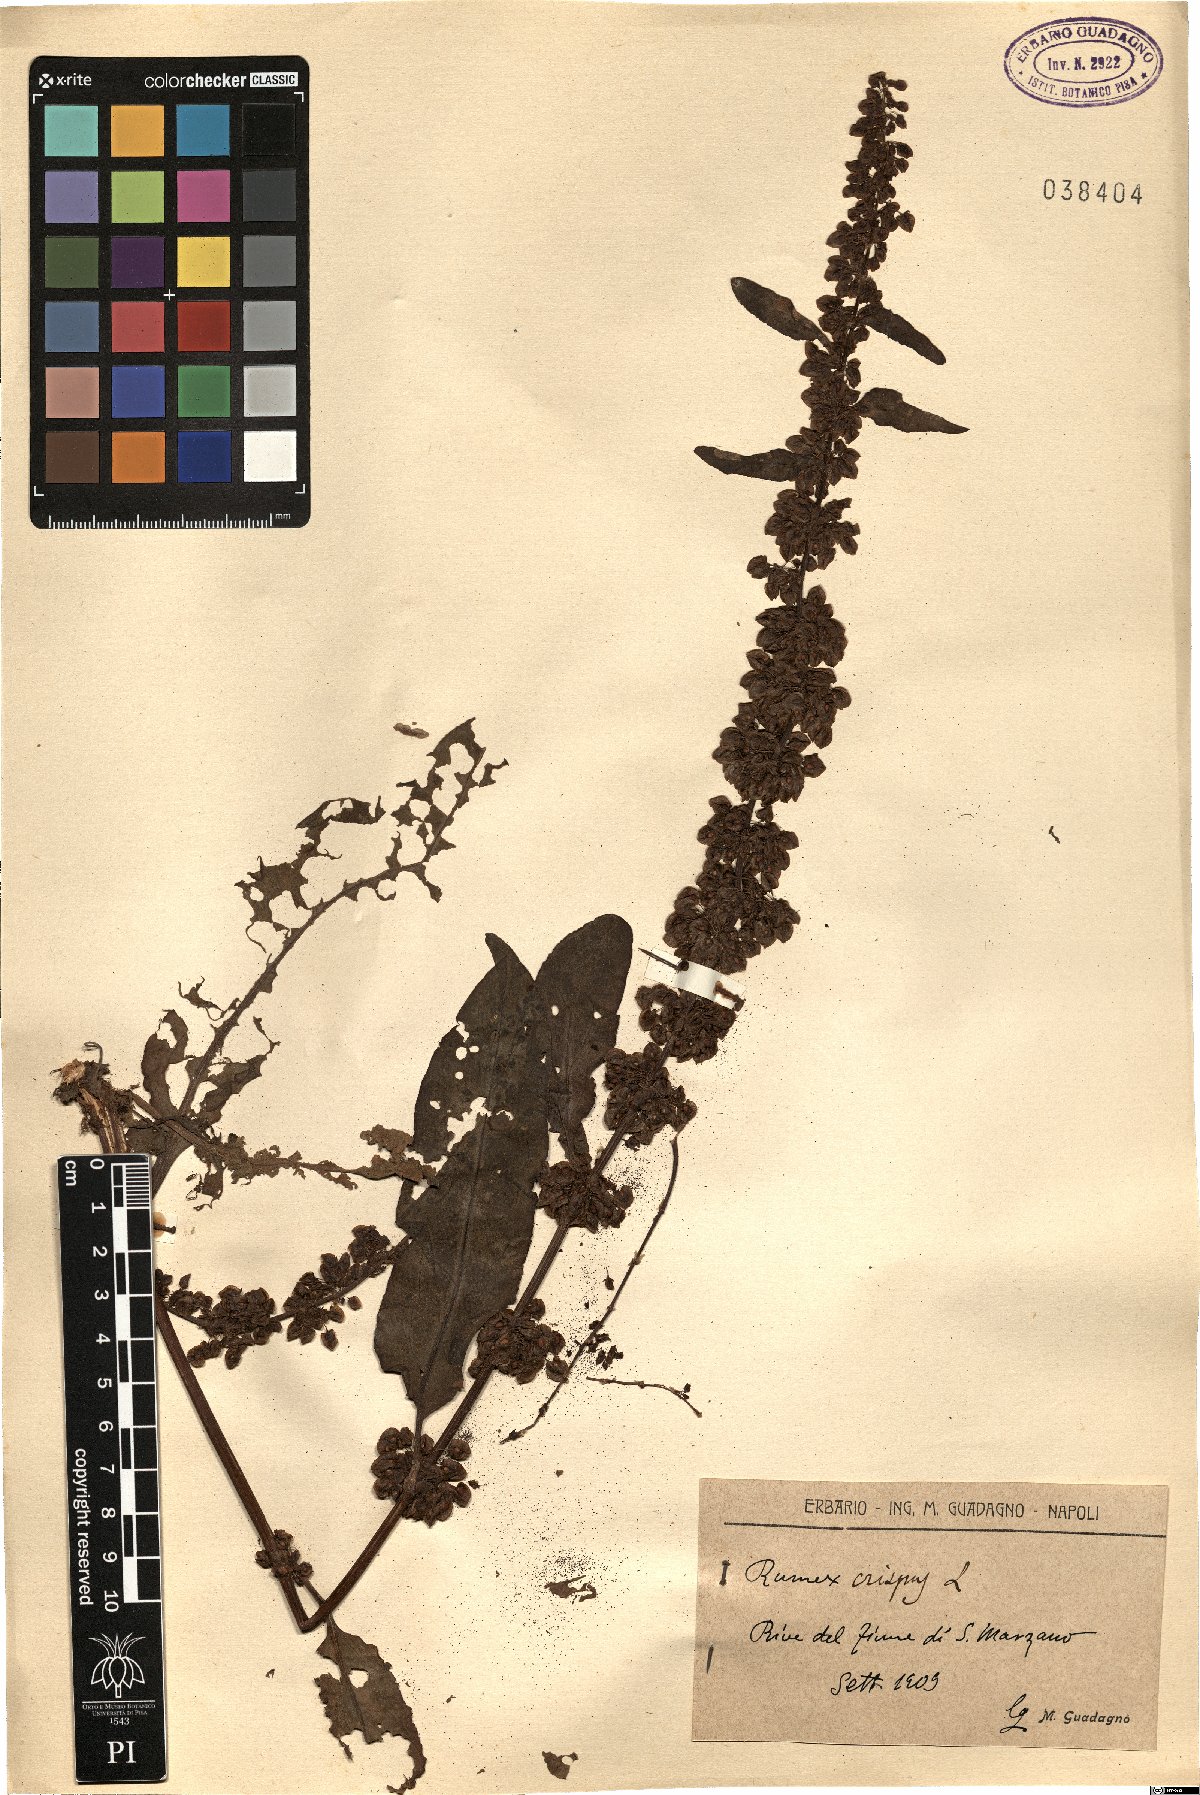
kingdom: Plantae
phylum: Tracheophyta
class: Magnoliopsida
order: Caryophyllales
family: Polygonaceae
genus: Rumex
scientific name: Rumex crispus
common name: Curled dock
